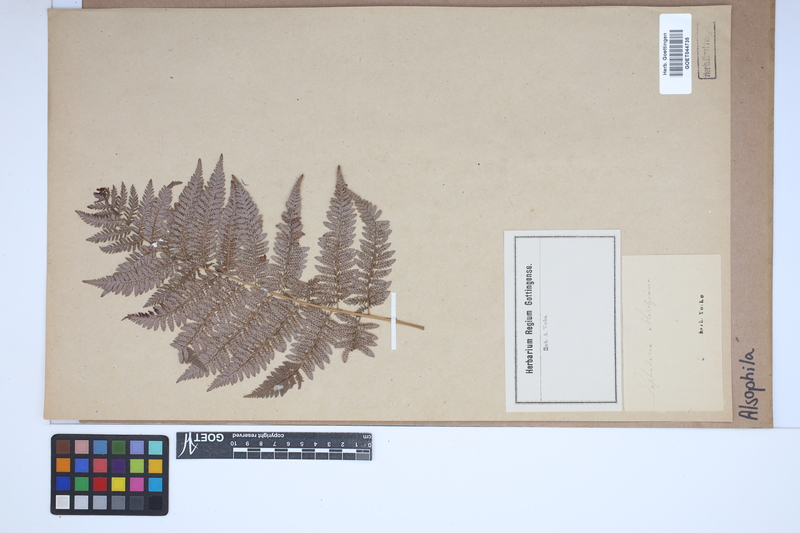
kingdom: Plantae
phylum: Tracheophyta
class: Polypodiopsida
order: Cyatheales
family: Cyatheaceae
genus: Alsophila
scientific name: Alsophila
